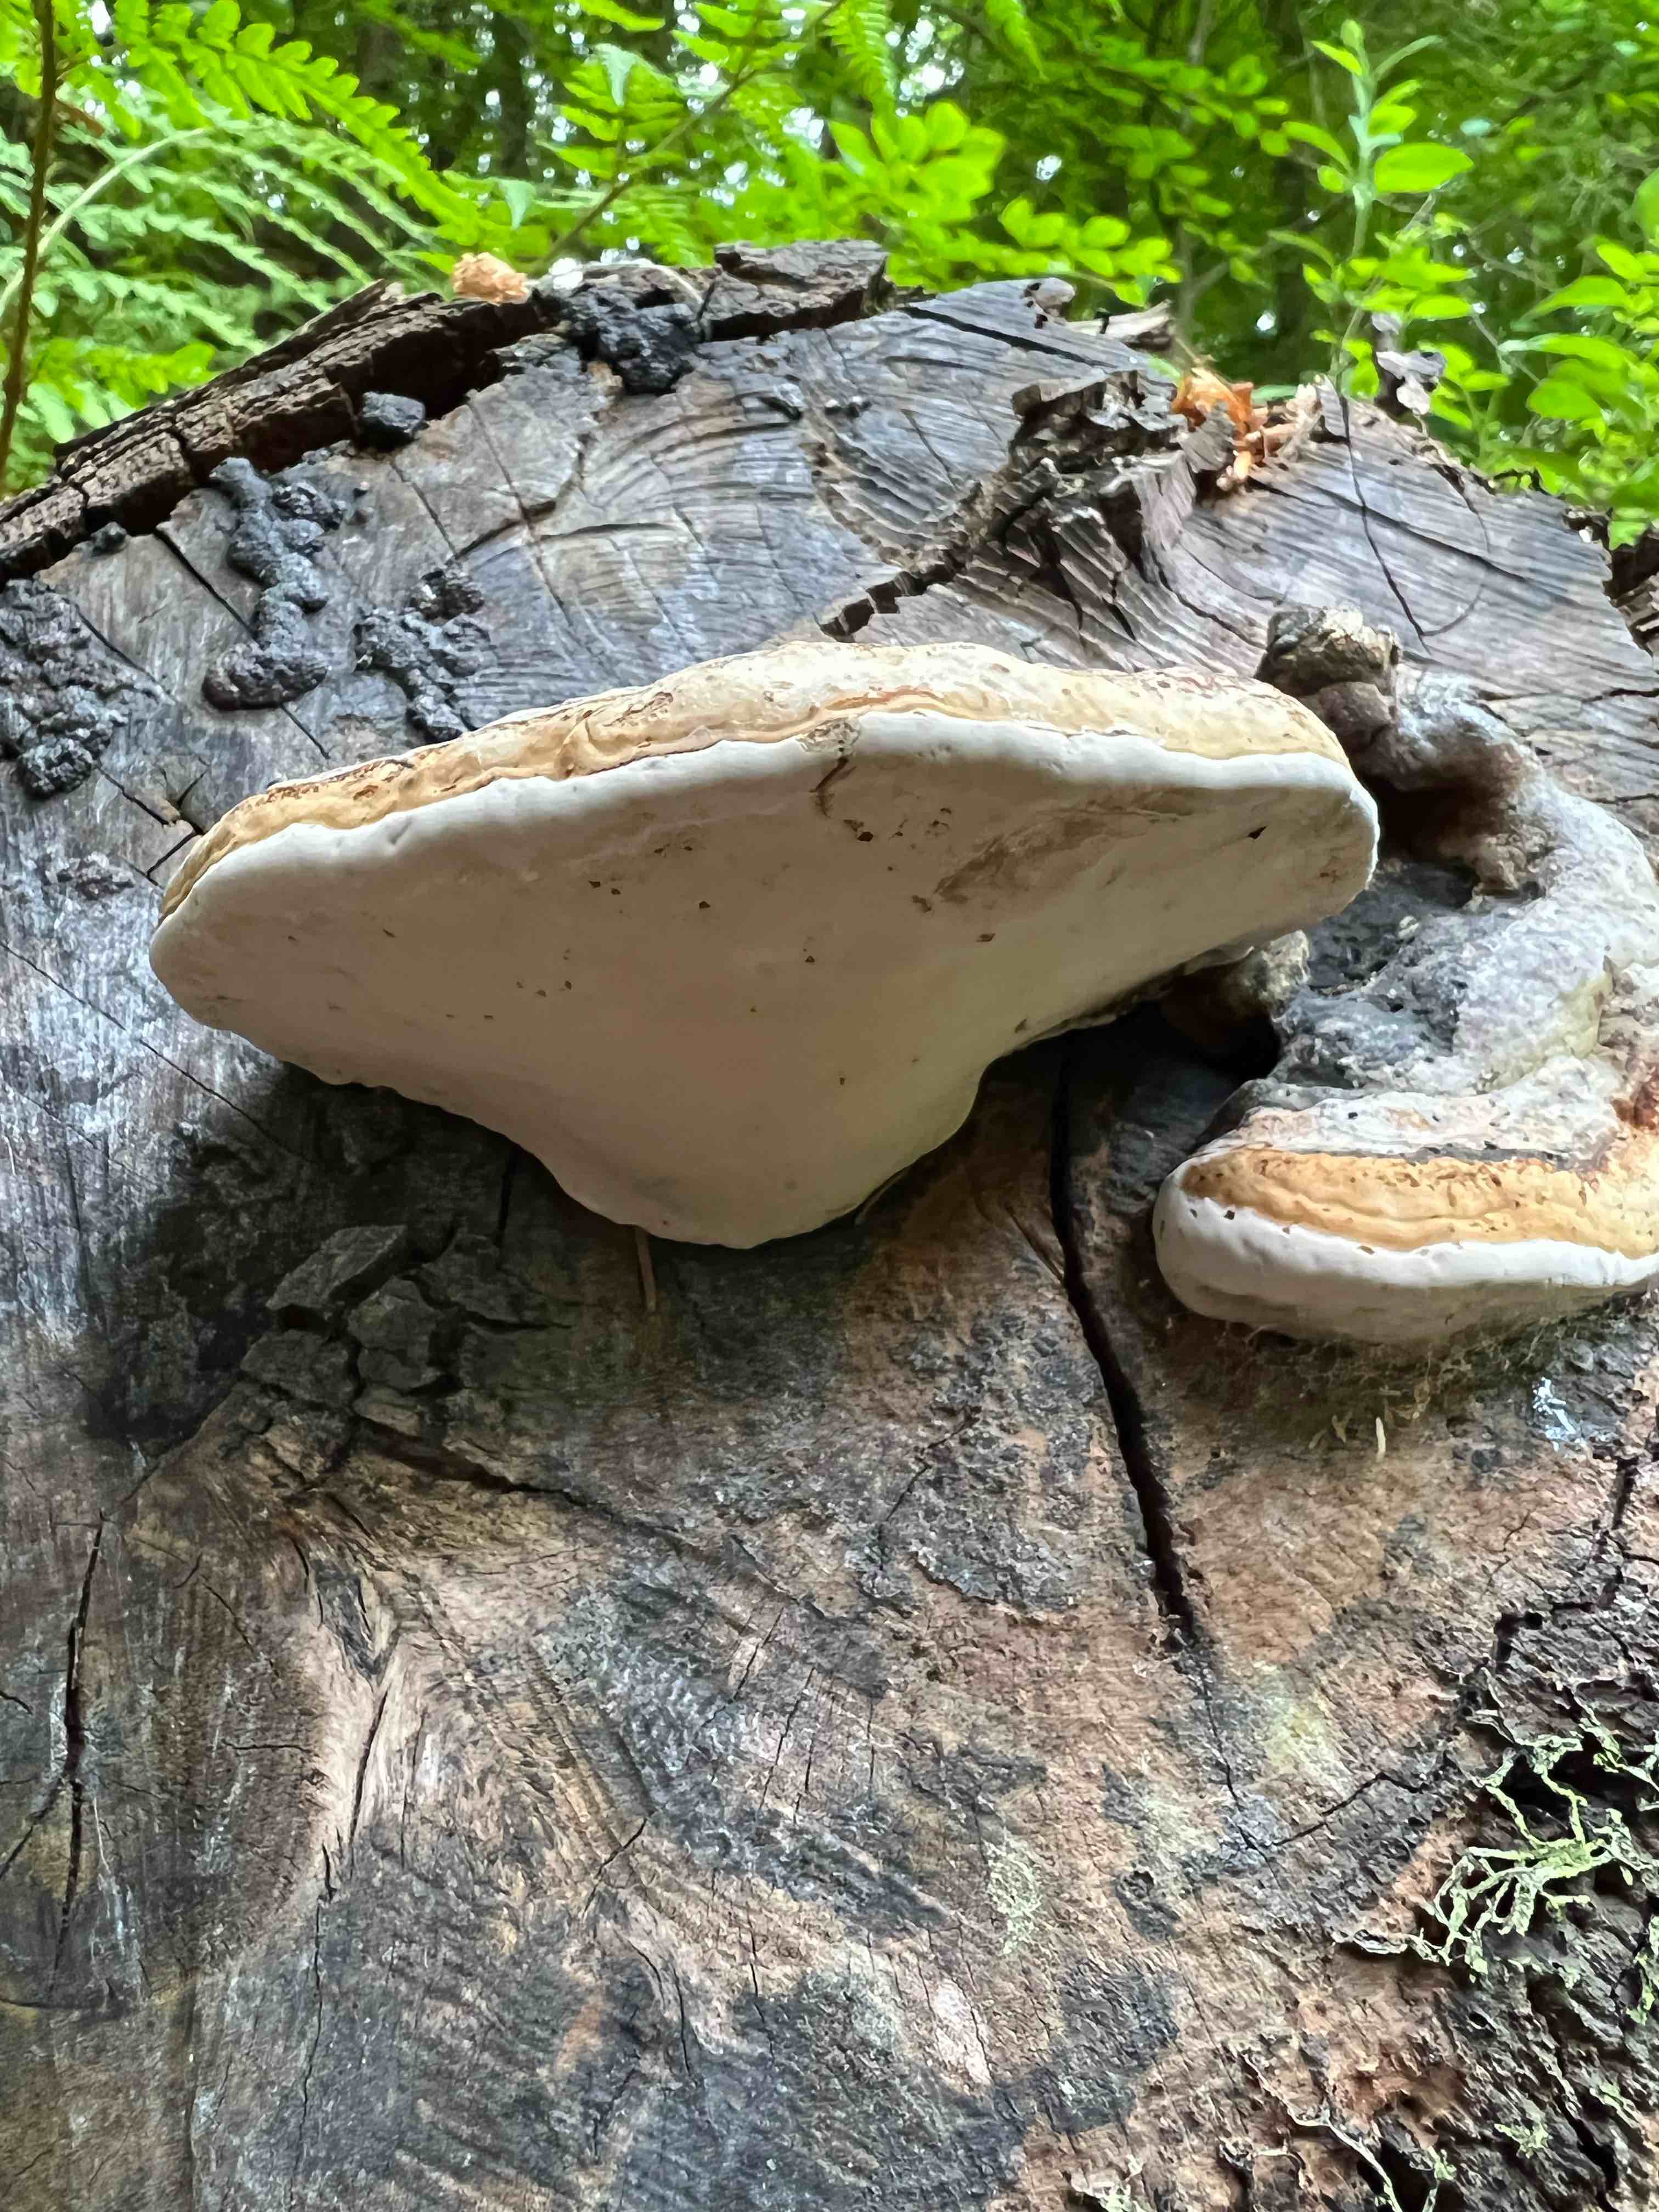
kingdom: Fungi
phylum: Basidiomycota
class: Agaricomycetes
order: Polyporales
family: Polyporaceae
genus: Fomes
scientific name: Fomes fomentarius
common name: tøndersvamp
